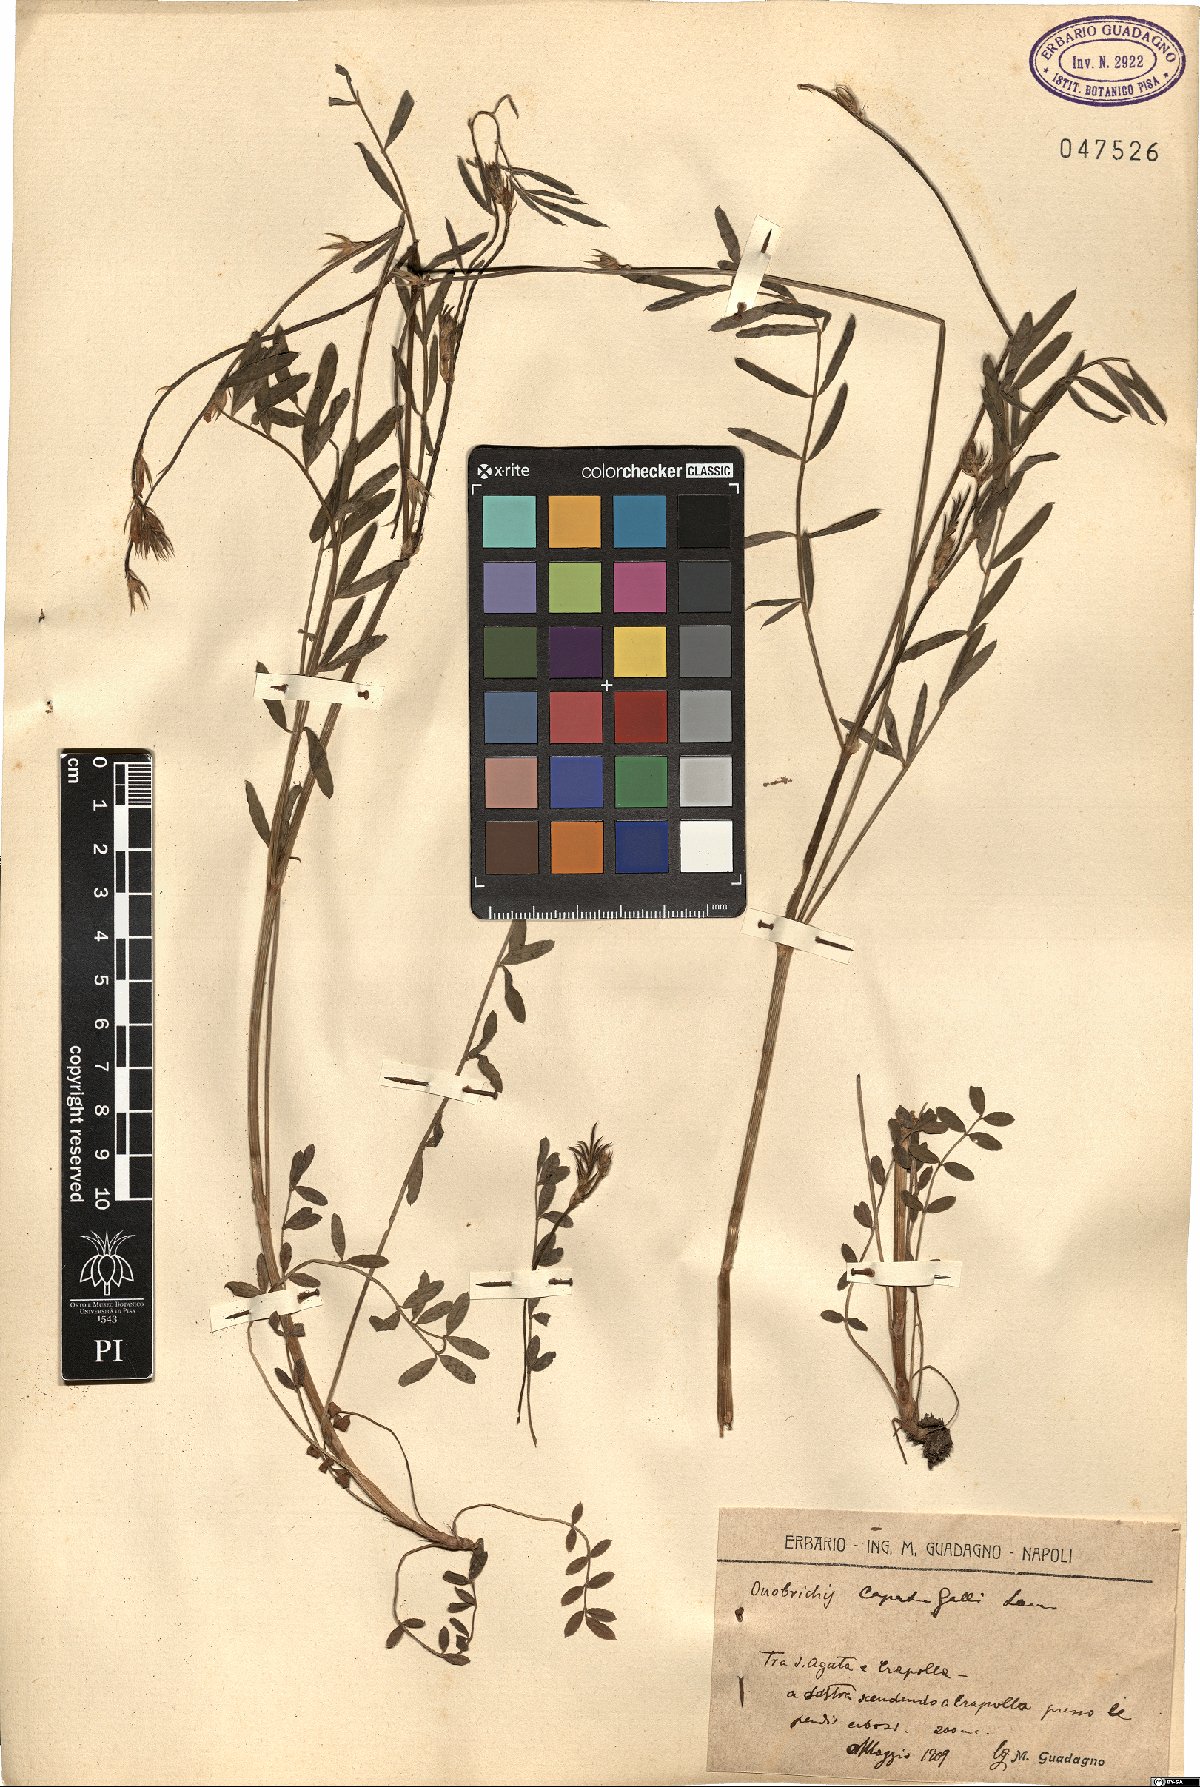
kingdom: Plantae
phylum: Tracheophyta
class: Magnoliopsida
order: Fabales
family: Fabaceae
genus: Onobrychis
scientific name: Onobrychis caput-galli
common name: Cockscomb sainfoin
